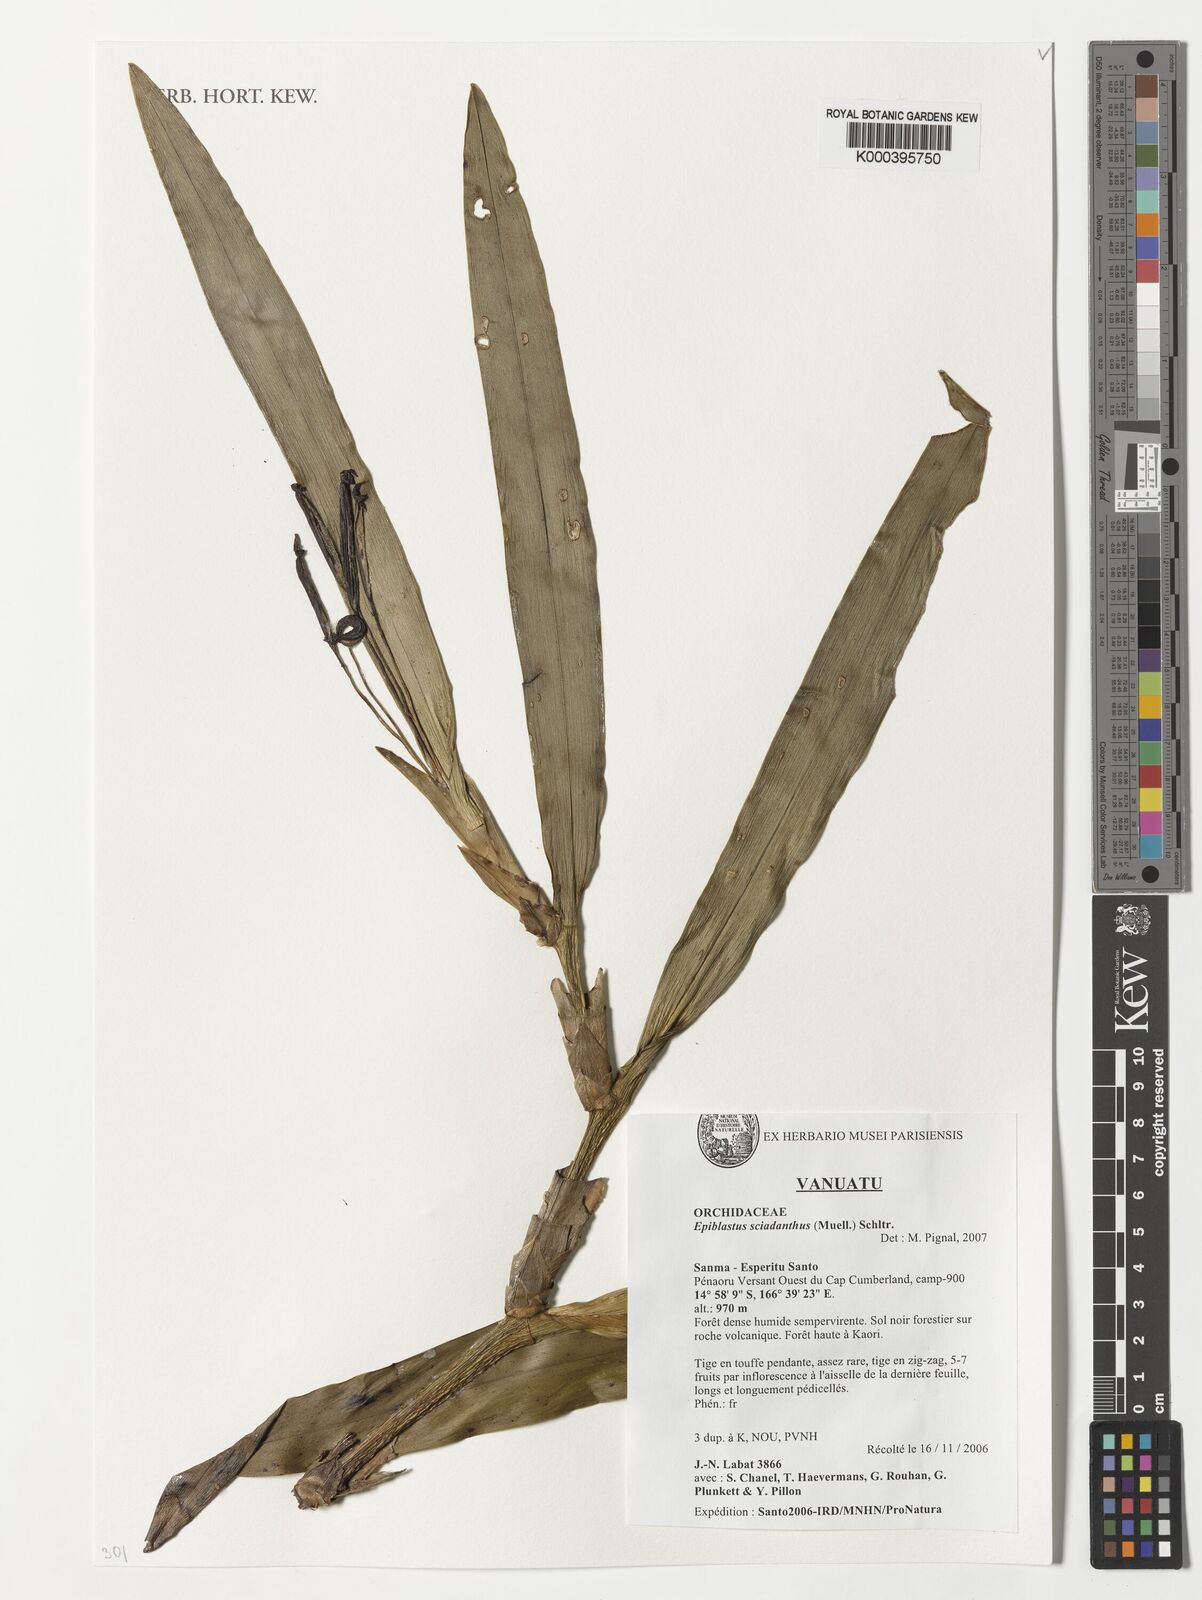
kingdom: Plantae
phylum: Tracheophyta
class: Liliopsida
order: Asparagales
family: Orchidaceae
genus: Epiblastus
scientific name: Epiblastus sciadanthus
